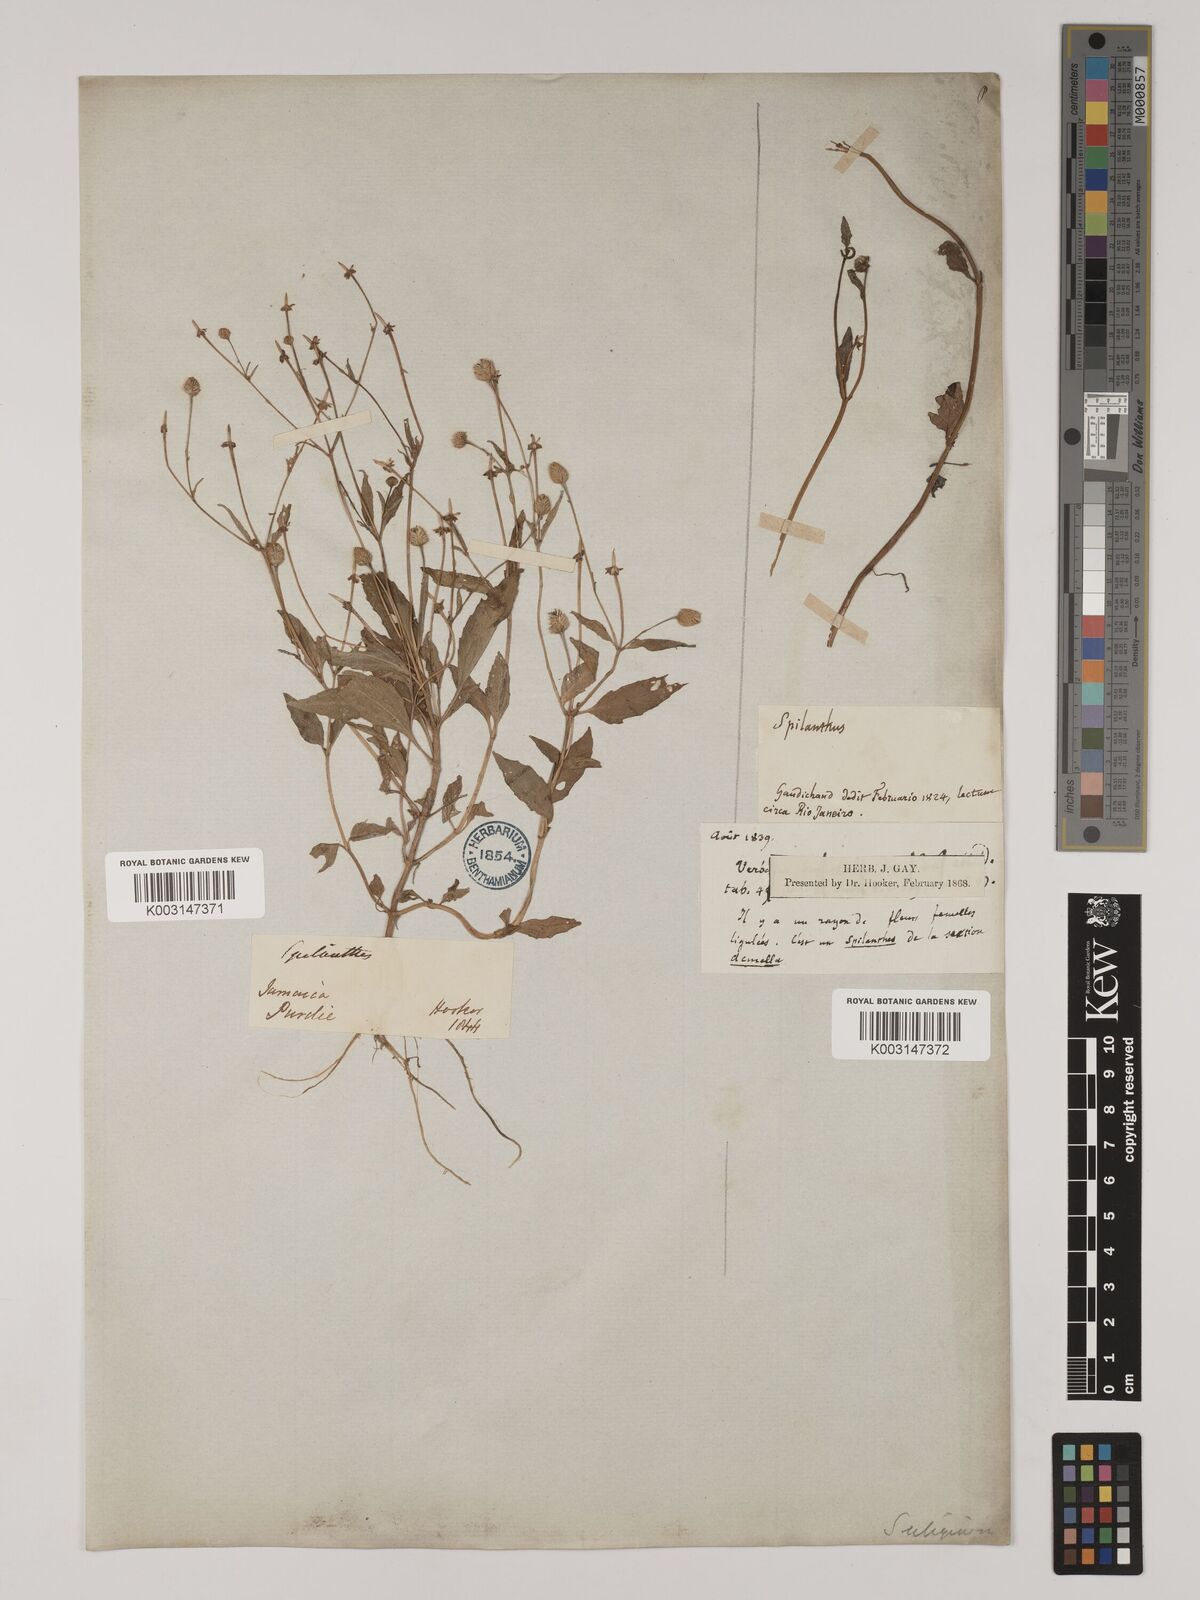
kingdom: Plantae
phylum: Tracheophyta
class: Magnoliopsida
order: Asterales
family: Asteraceae
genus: Acmella
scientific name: Acmella uliginosa
